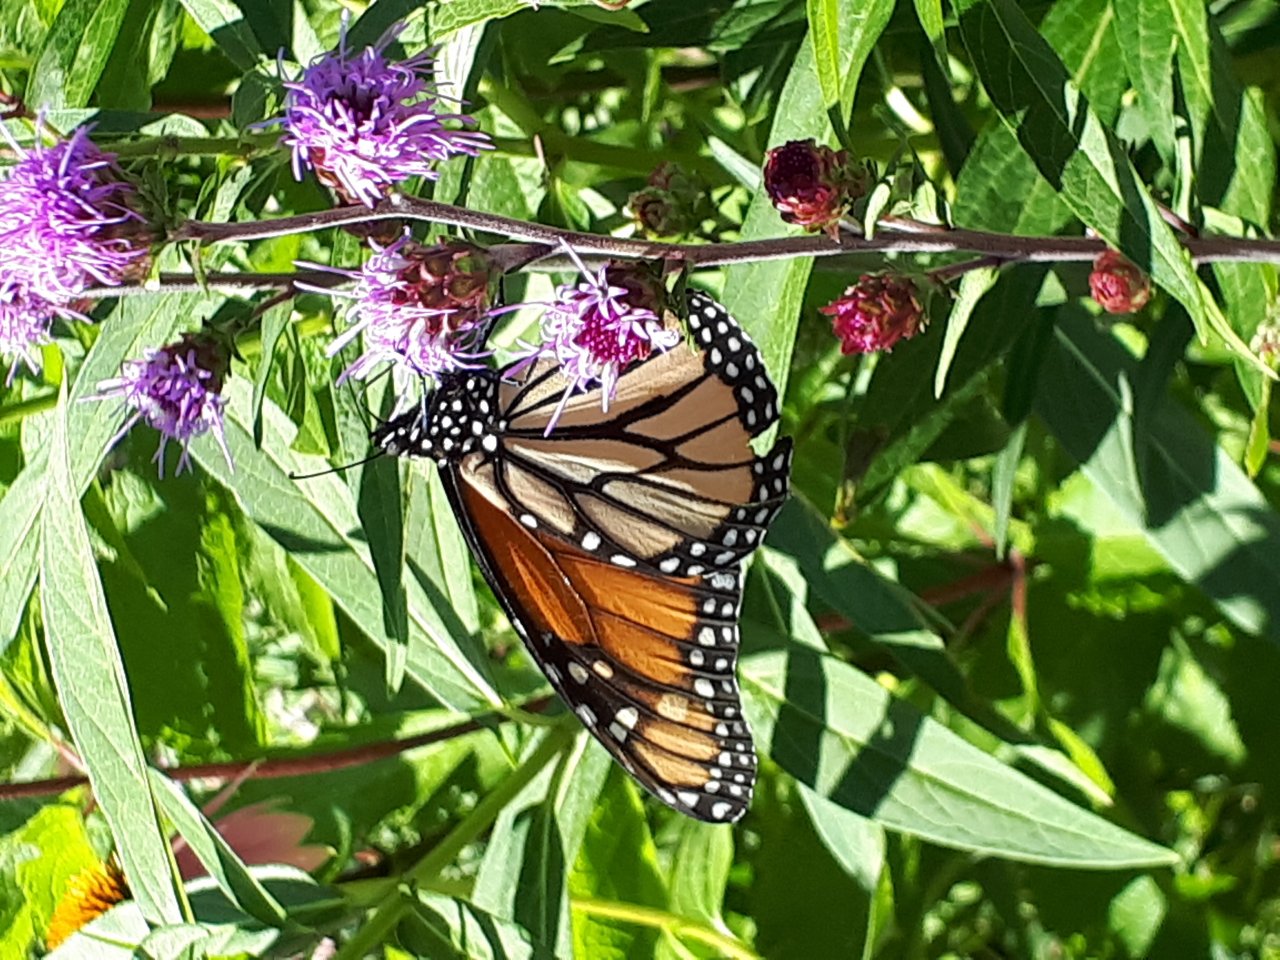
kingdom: Animalia
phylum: Arthropoda
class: Insecta
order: Lepidoptera
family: Nymphalidae
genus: Danaus
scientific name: Danaus plexippus
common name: Monarch
